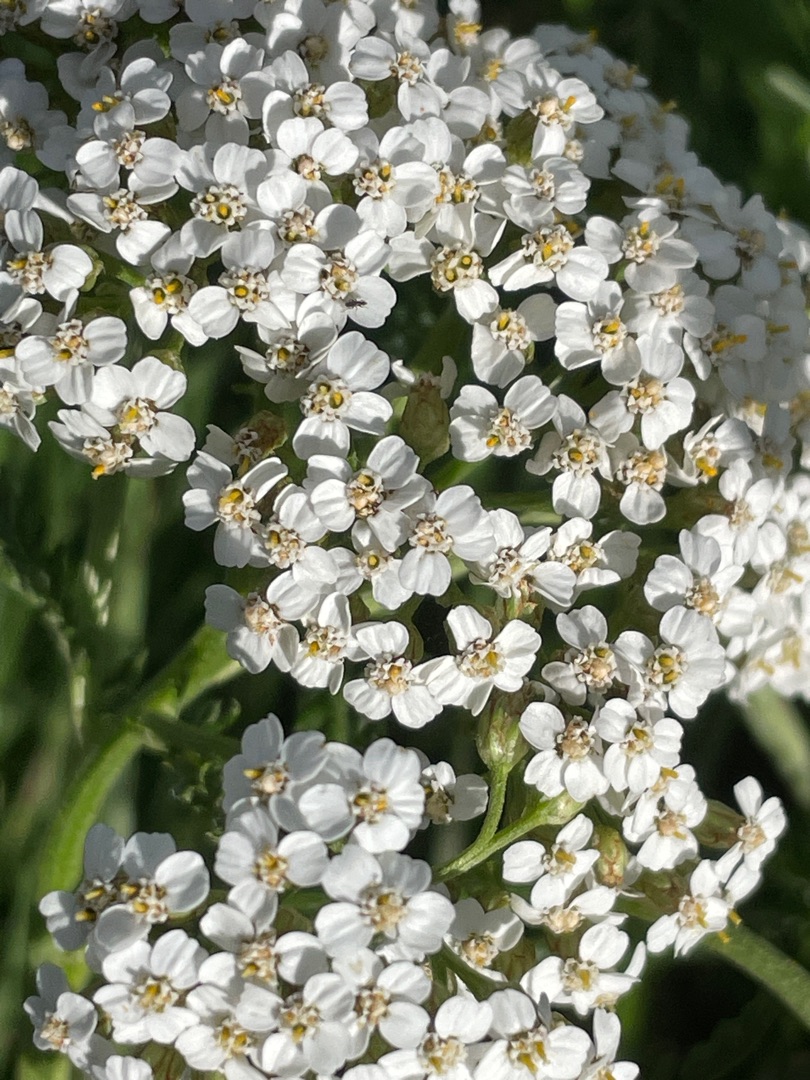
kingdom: Plantae
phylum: Tracheophyta
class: Magnoliopsida
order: Asterales
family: Asteraceae
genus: Achillea
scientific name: Achillea millefolium
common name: Almindelig røllike
